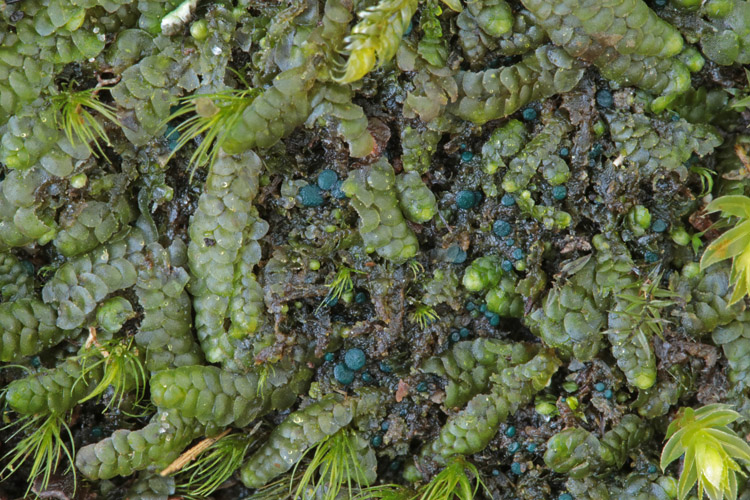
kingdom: Fungi
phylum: Ascomycota
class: Leotiomycetes
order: Leotiales
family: Mniaeciaceae
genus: Mniaecia
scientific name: Mniaecia jungermanniae
